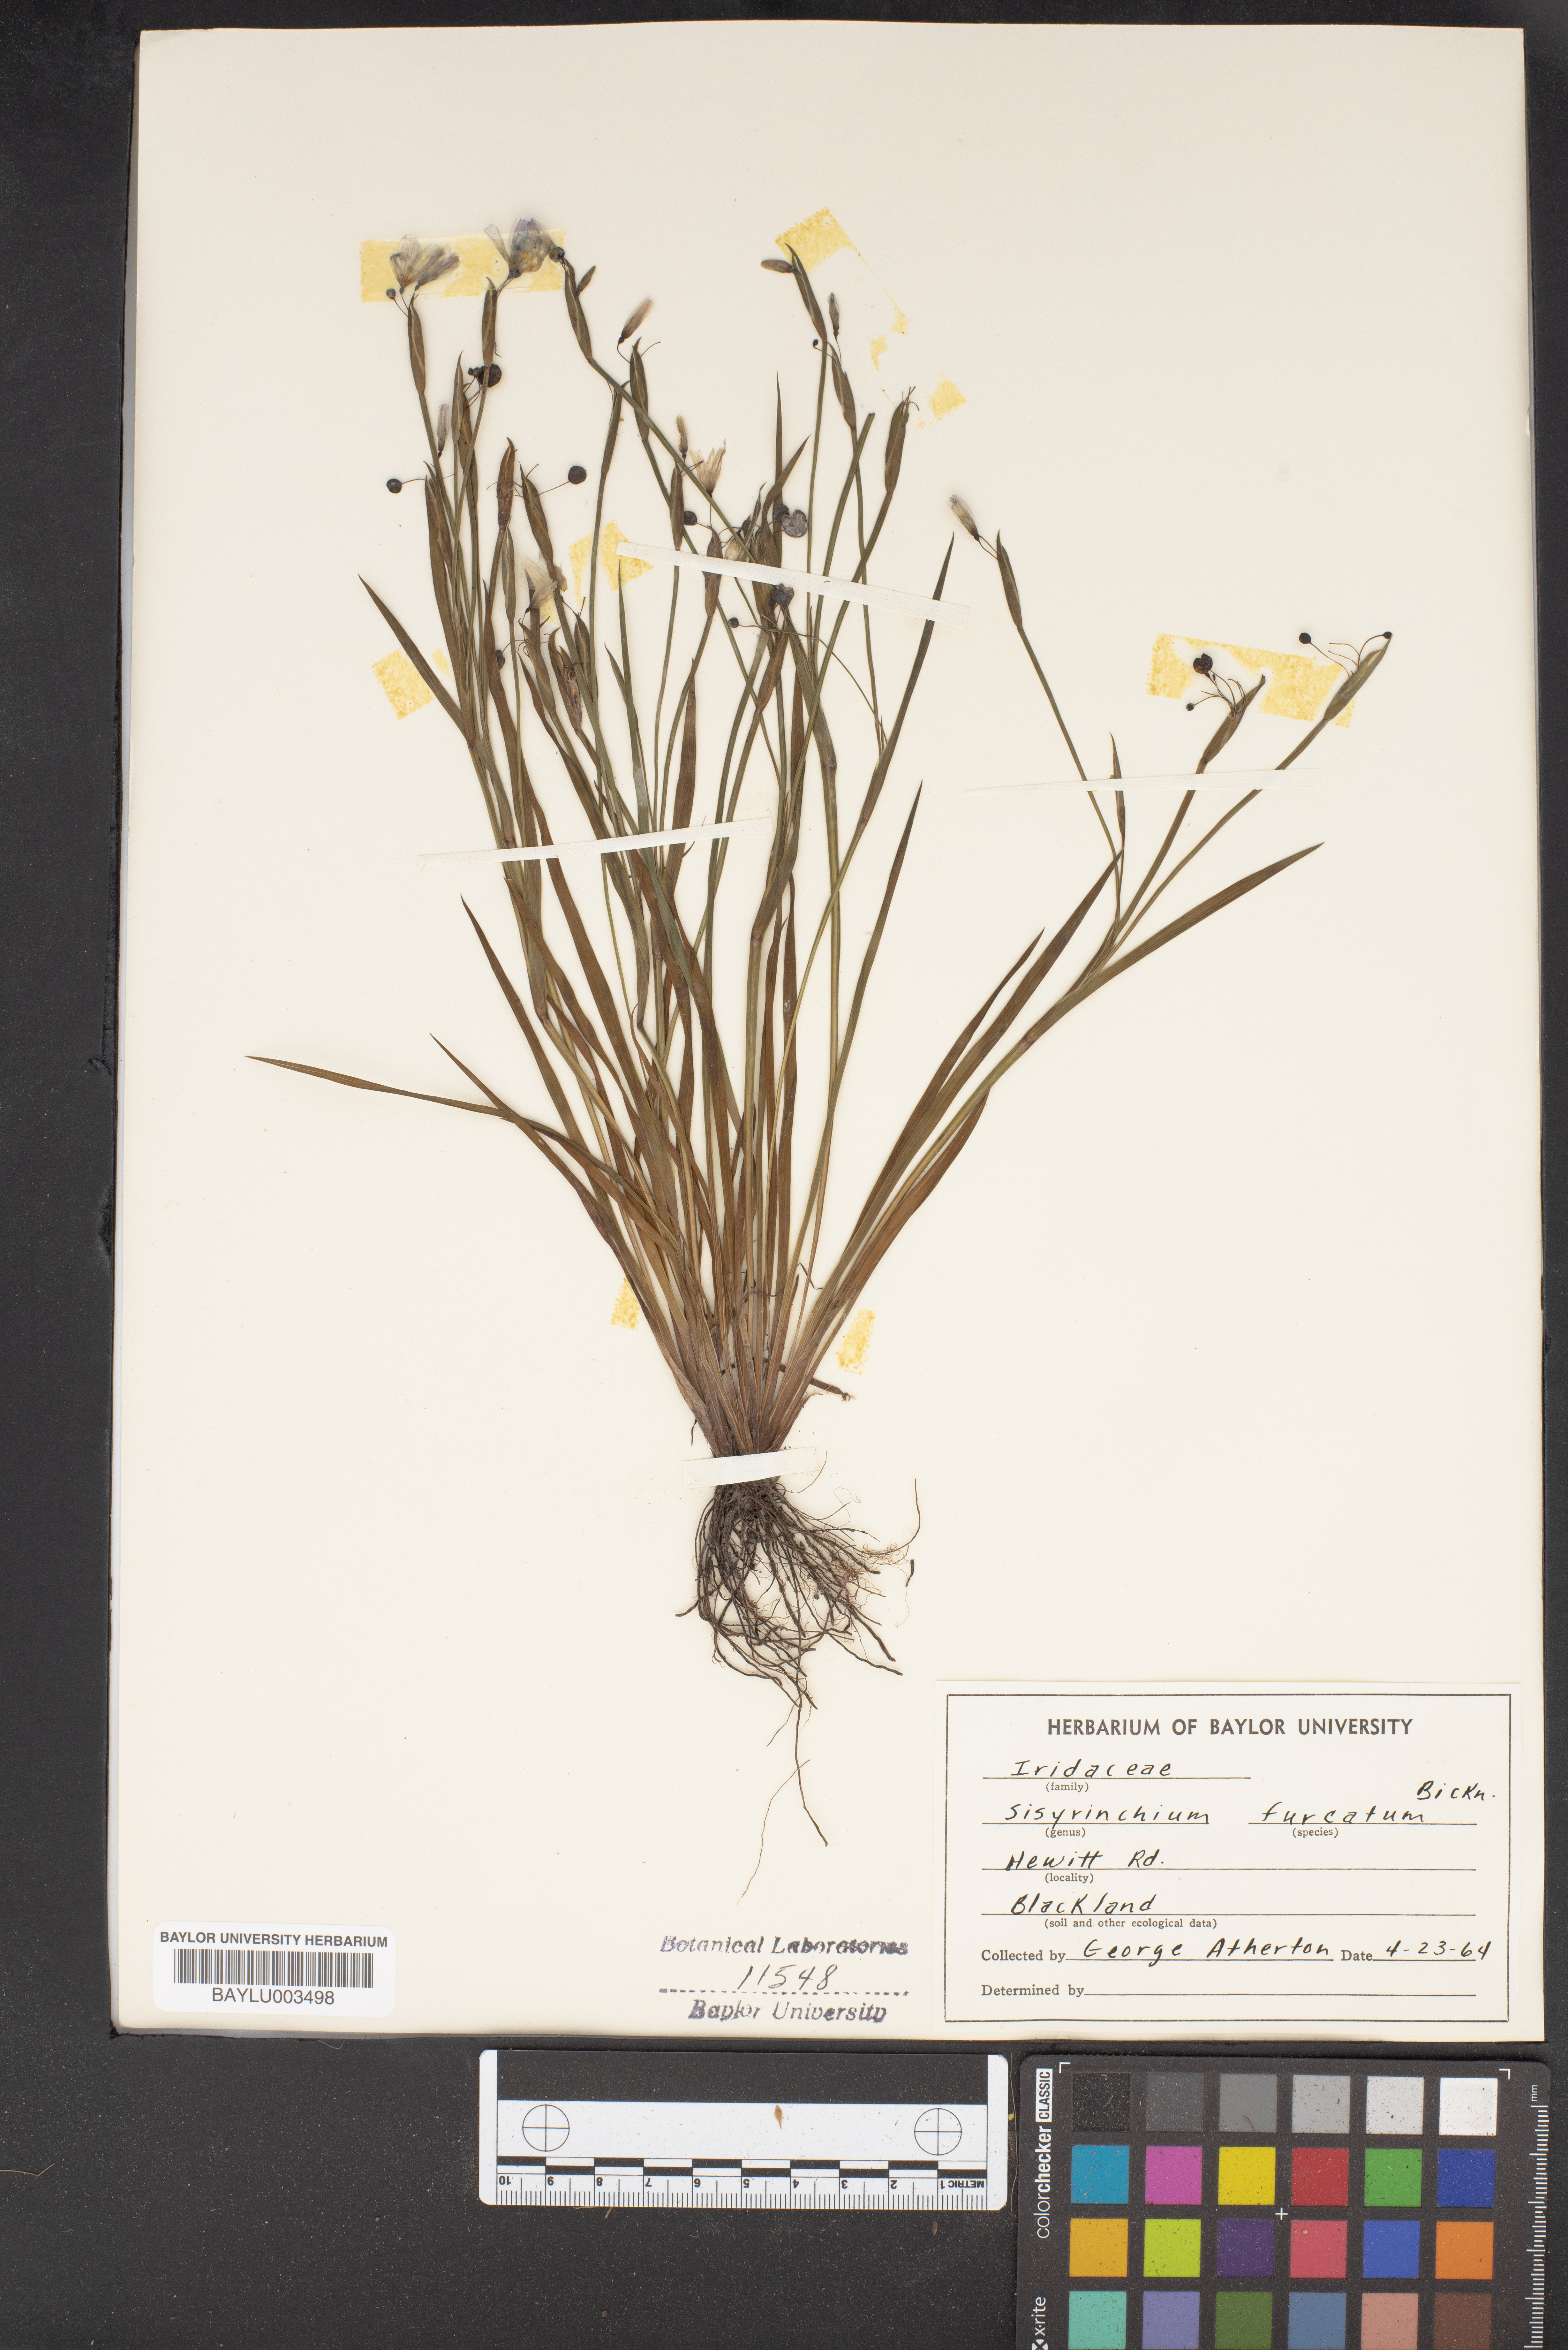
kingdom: Plantae
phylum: Tracheophyta
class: Liliopsida
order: Asparagales
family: Iridaceae
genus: Sisyrinchium
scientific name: Sisyrinchium langloisii
